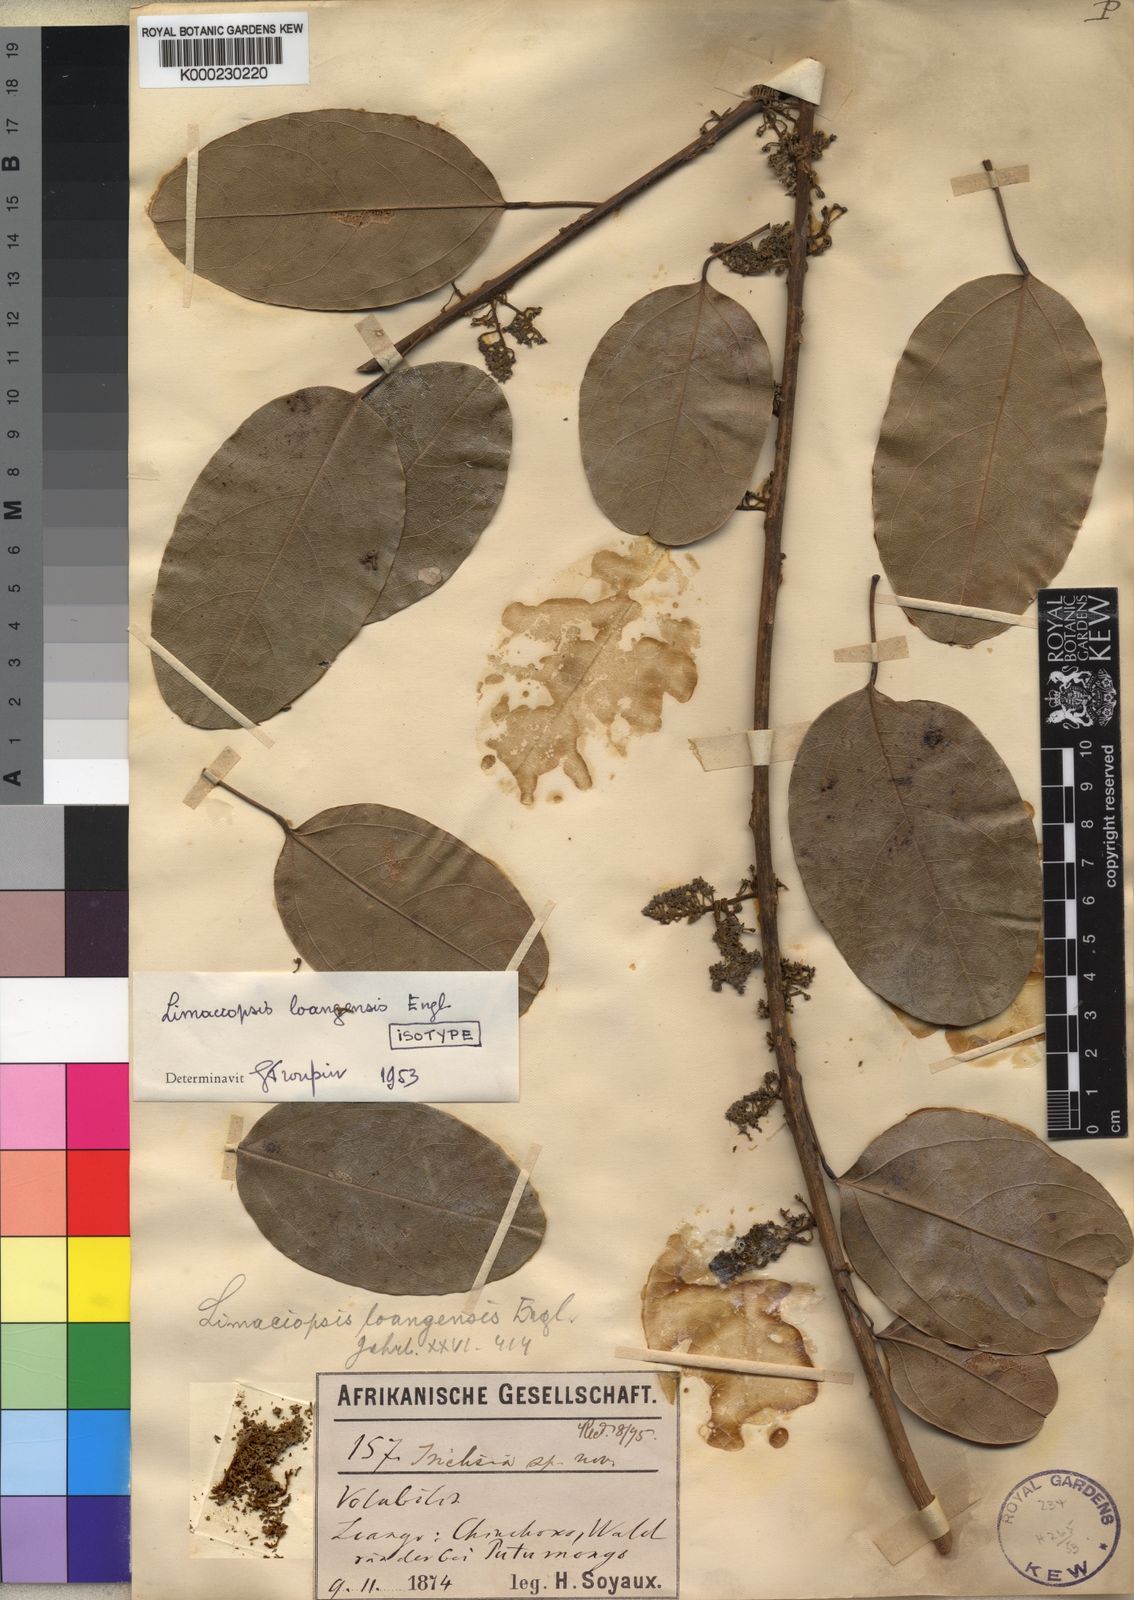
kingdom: Plantae
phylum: Tracheophyta
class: Magnoliopsida
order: Ranunculales
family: Menispermaceae
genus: Limaciopsis
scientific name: Limaciopsis loangensis
